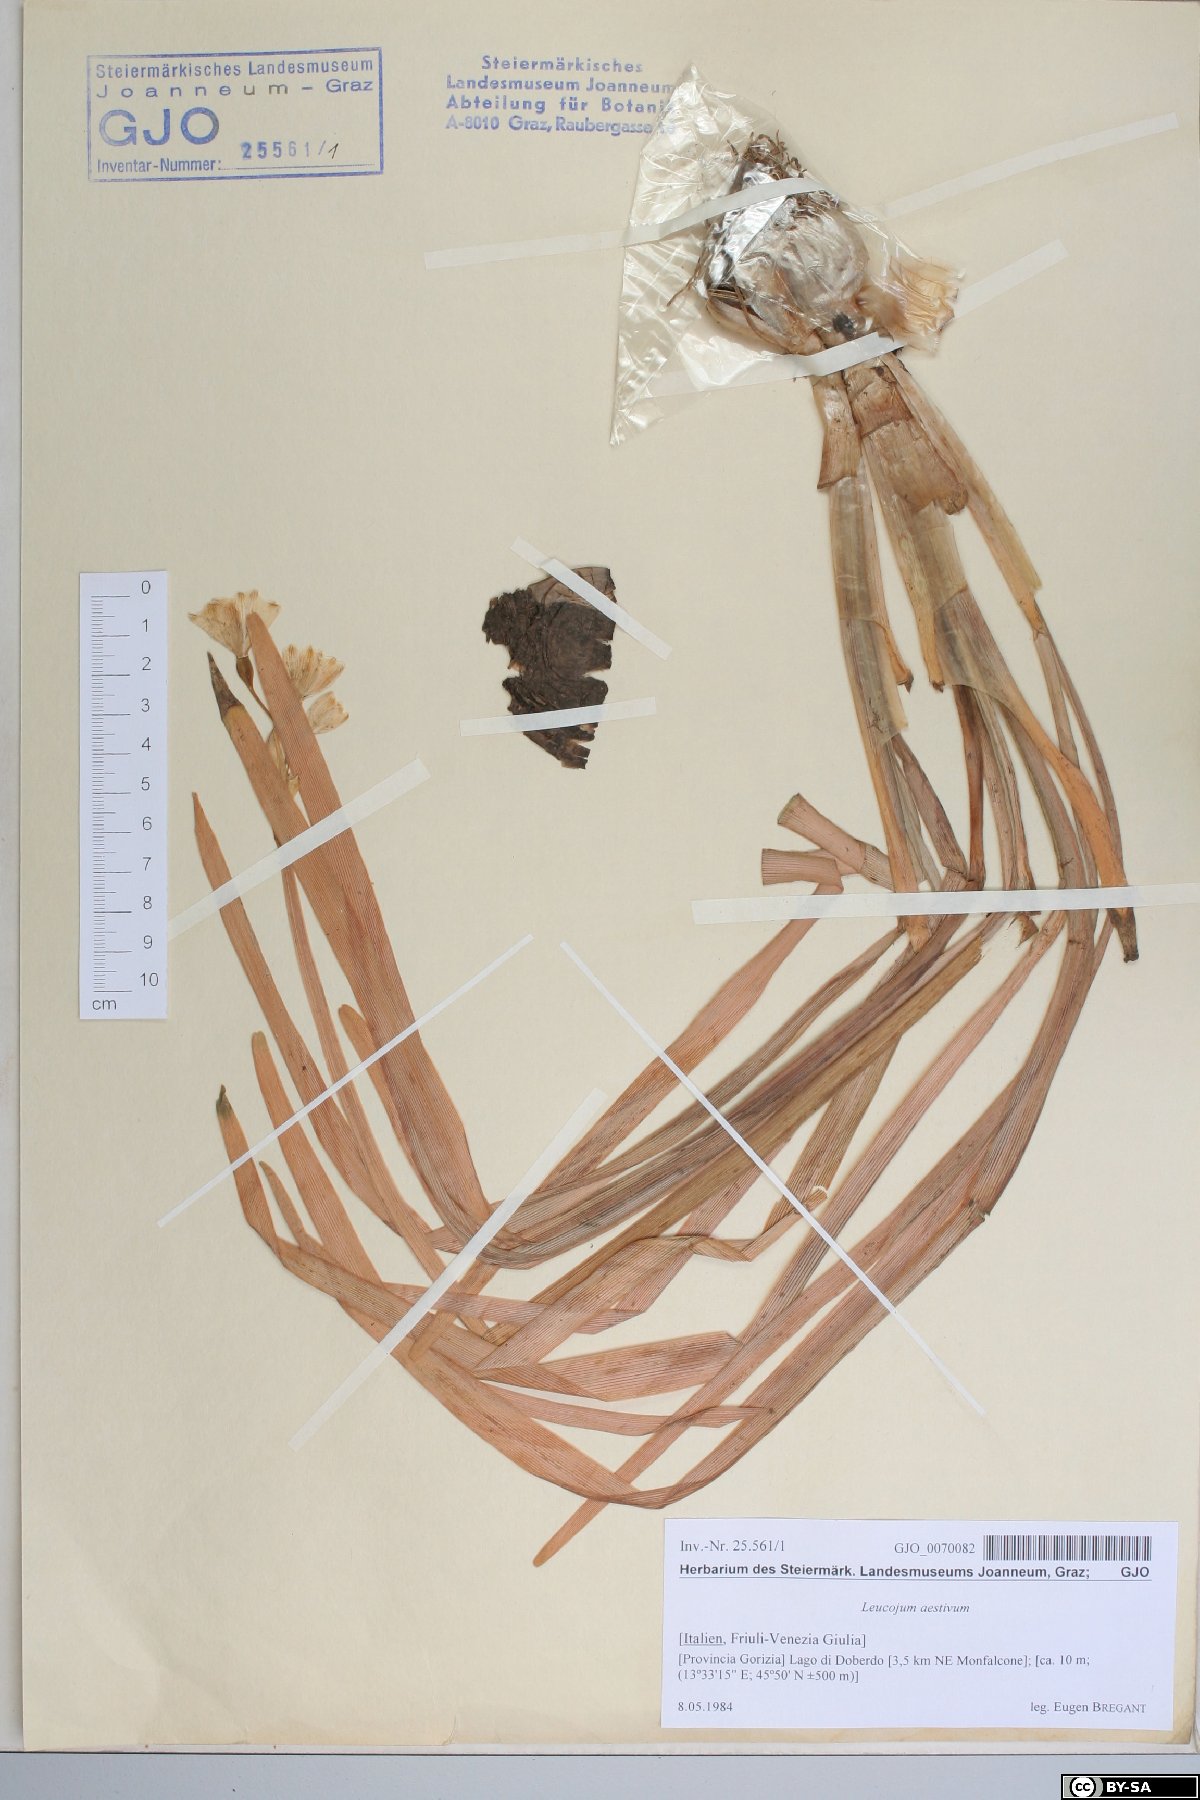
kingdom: Plantae
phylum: Tracheophyta
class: Liliopsida
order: Asparagales
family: Amaryllidaceae
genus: Leucojum
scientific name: Leucojum aestivum
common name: Summer snowflake
